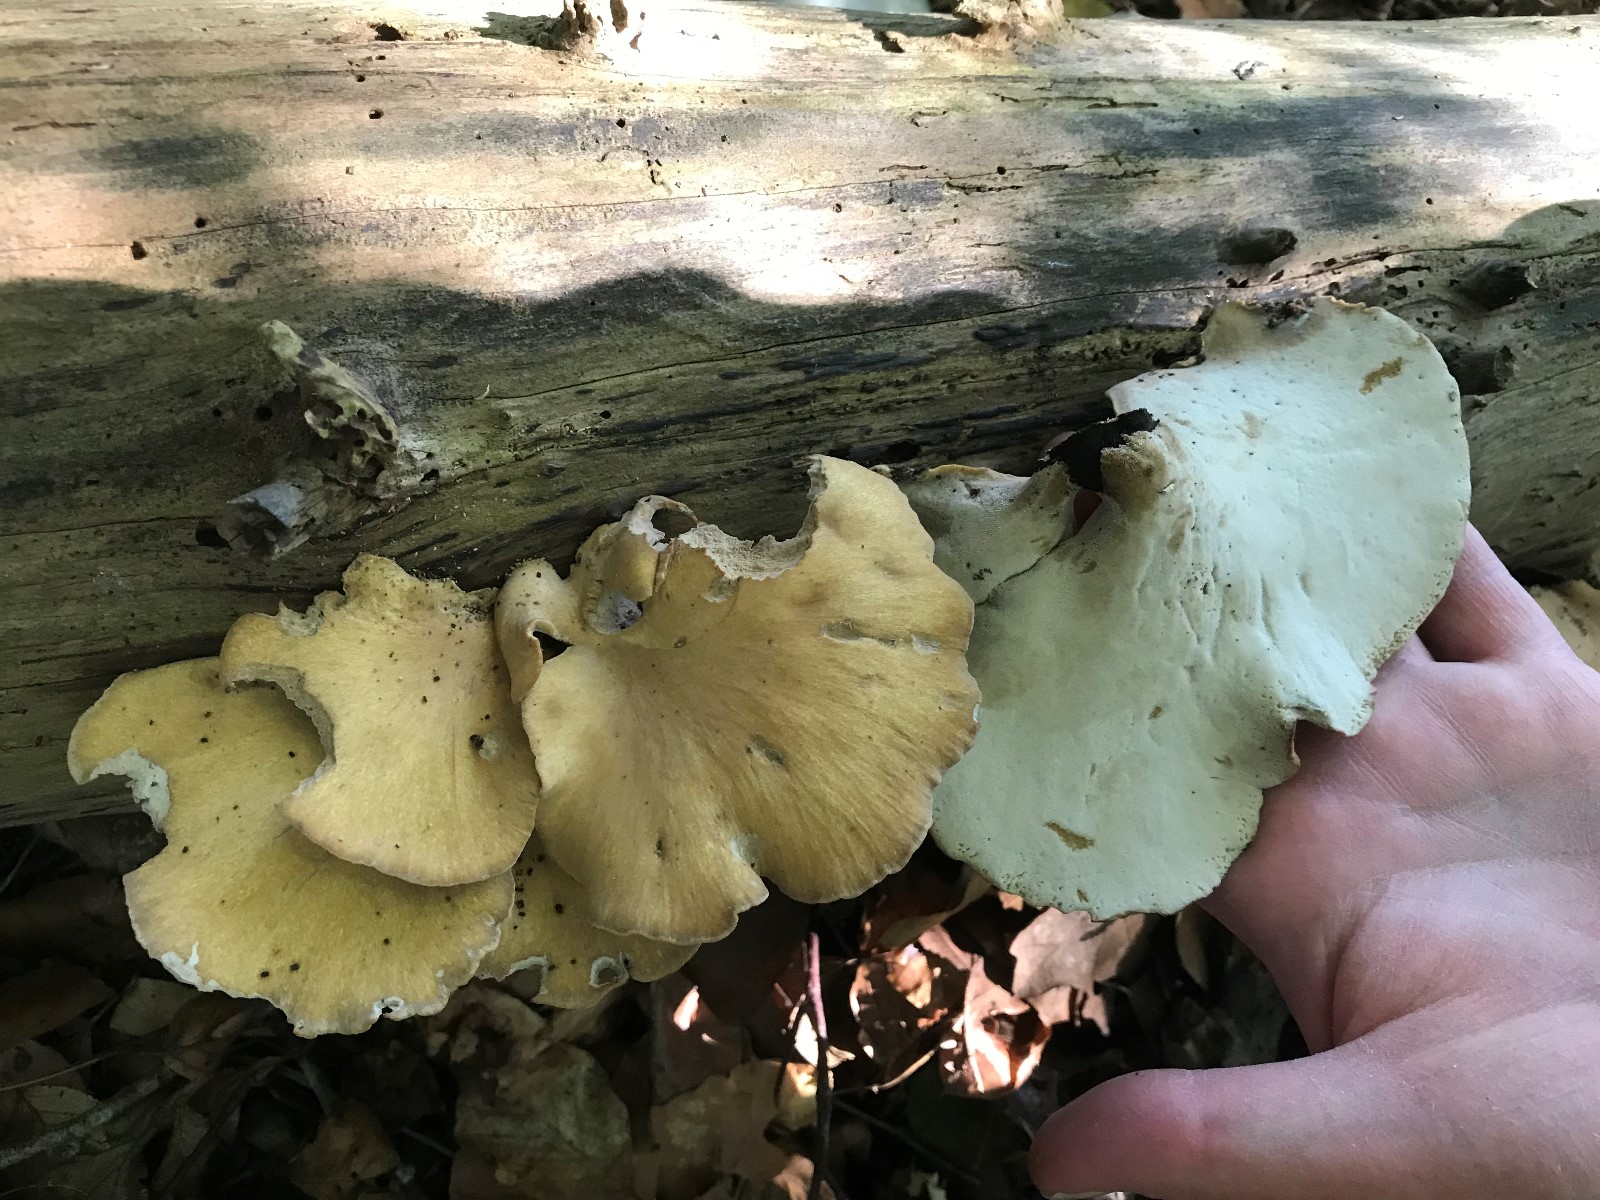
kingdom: Fungi
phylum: Basidiomycota
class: Agaricomycetes
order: Polyporales
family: Polyporaceae
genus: Cerioporus
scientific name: Cerioporus varius
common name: foranderlig stilkporesvamp
